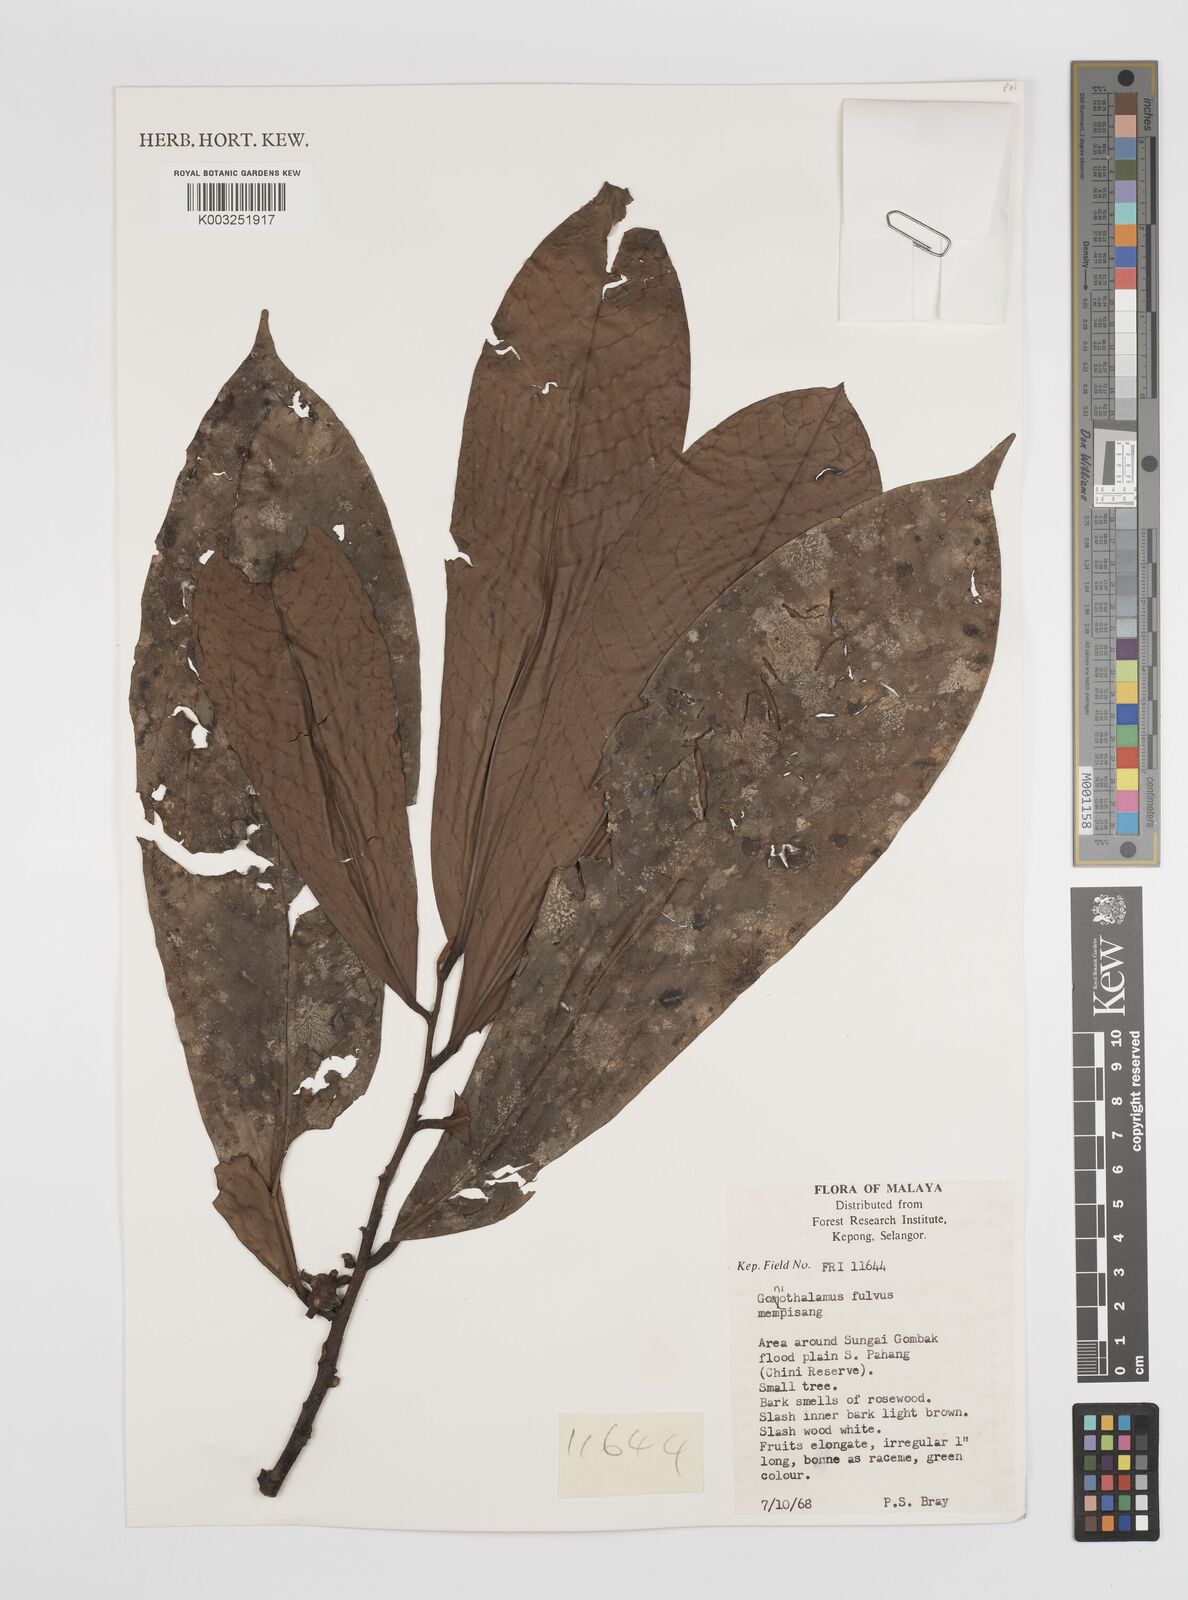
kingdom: Plantae
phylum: Tracheophyta
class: Magnoliopsida
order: Magnoliales
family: Annonaceae
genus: Goniothalamus
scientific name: Goniothalamus fulvus
